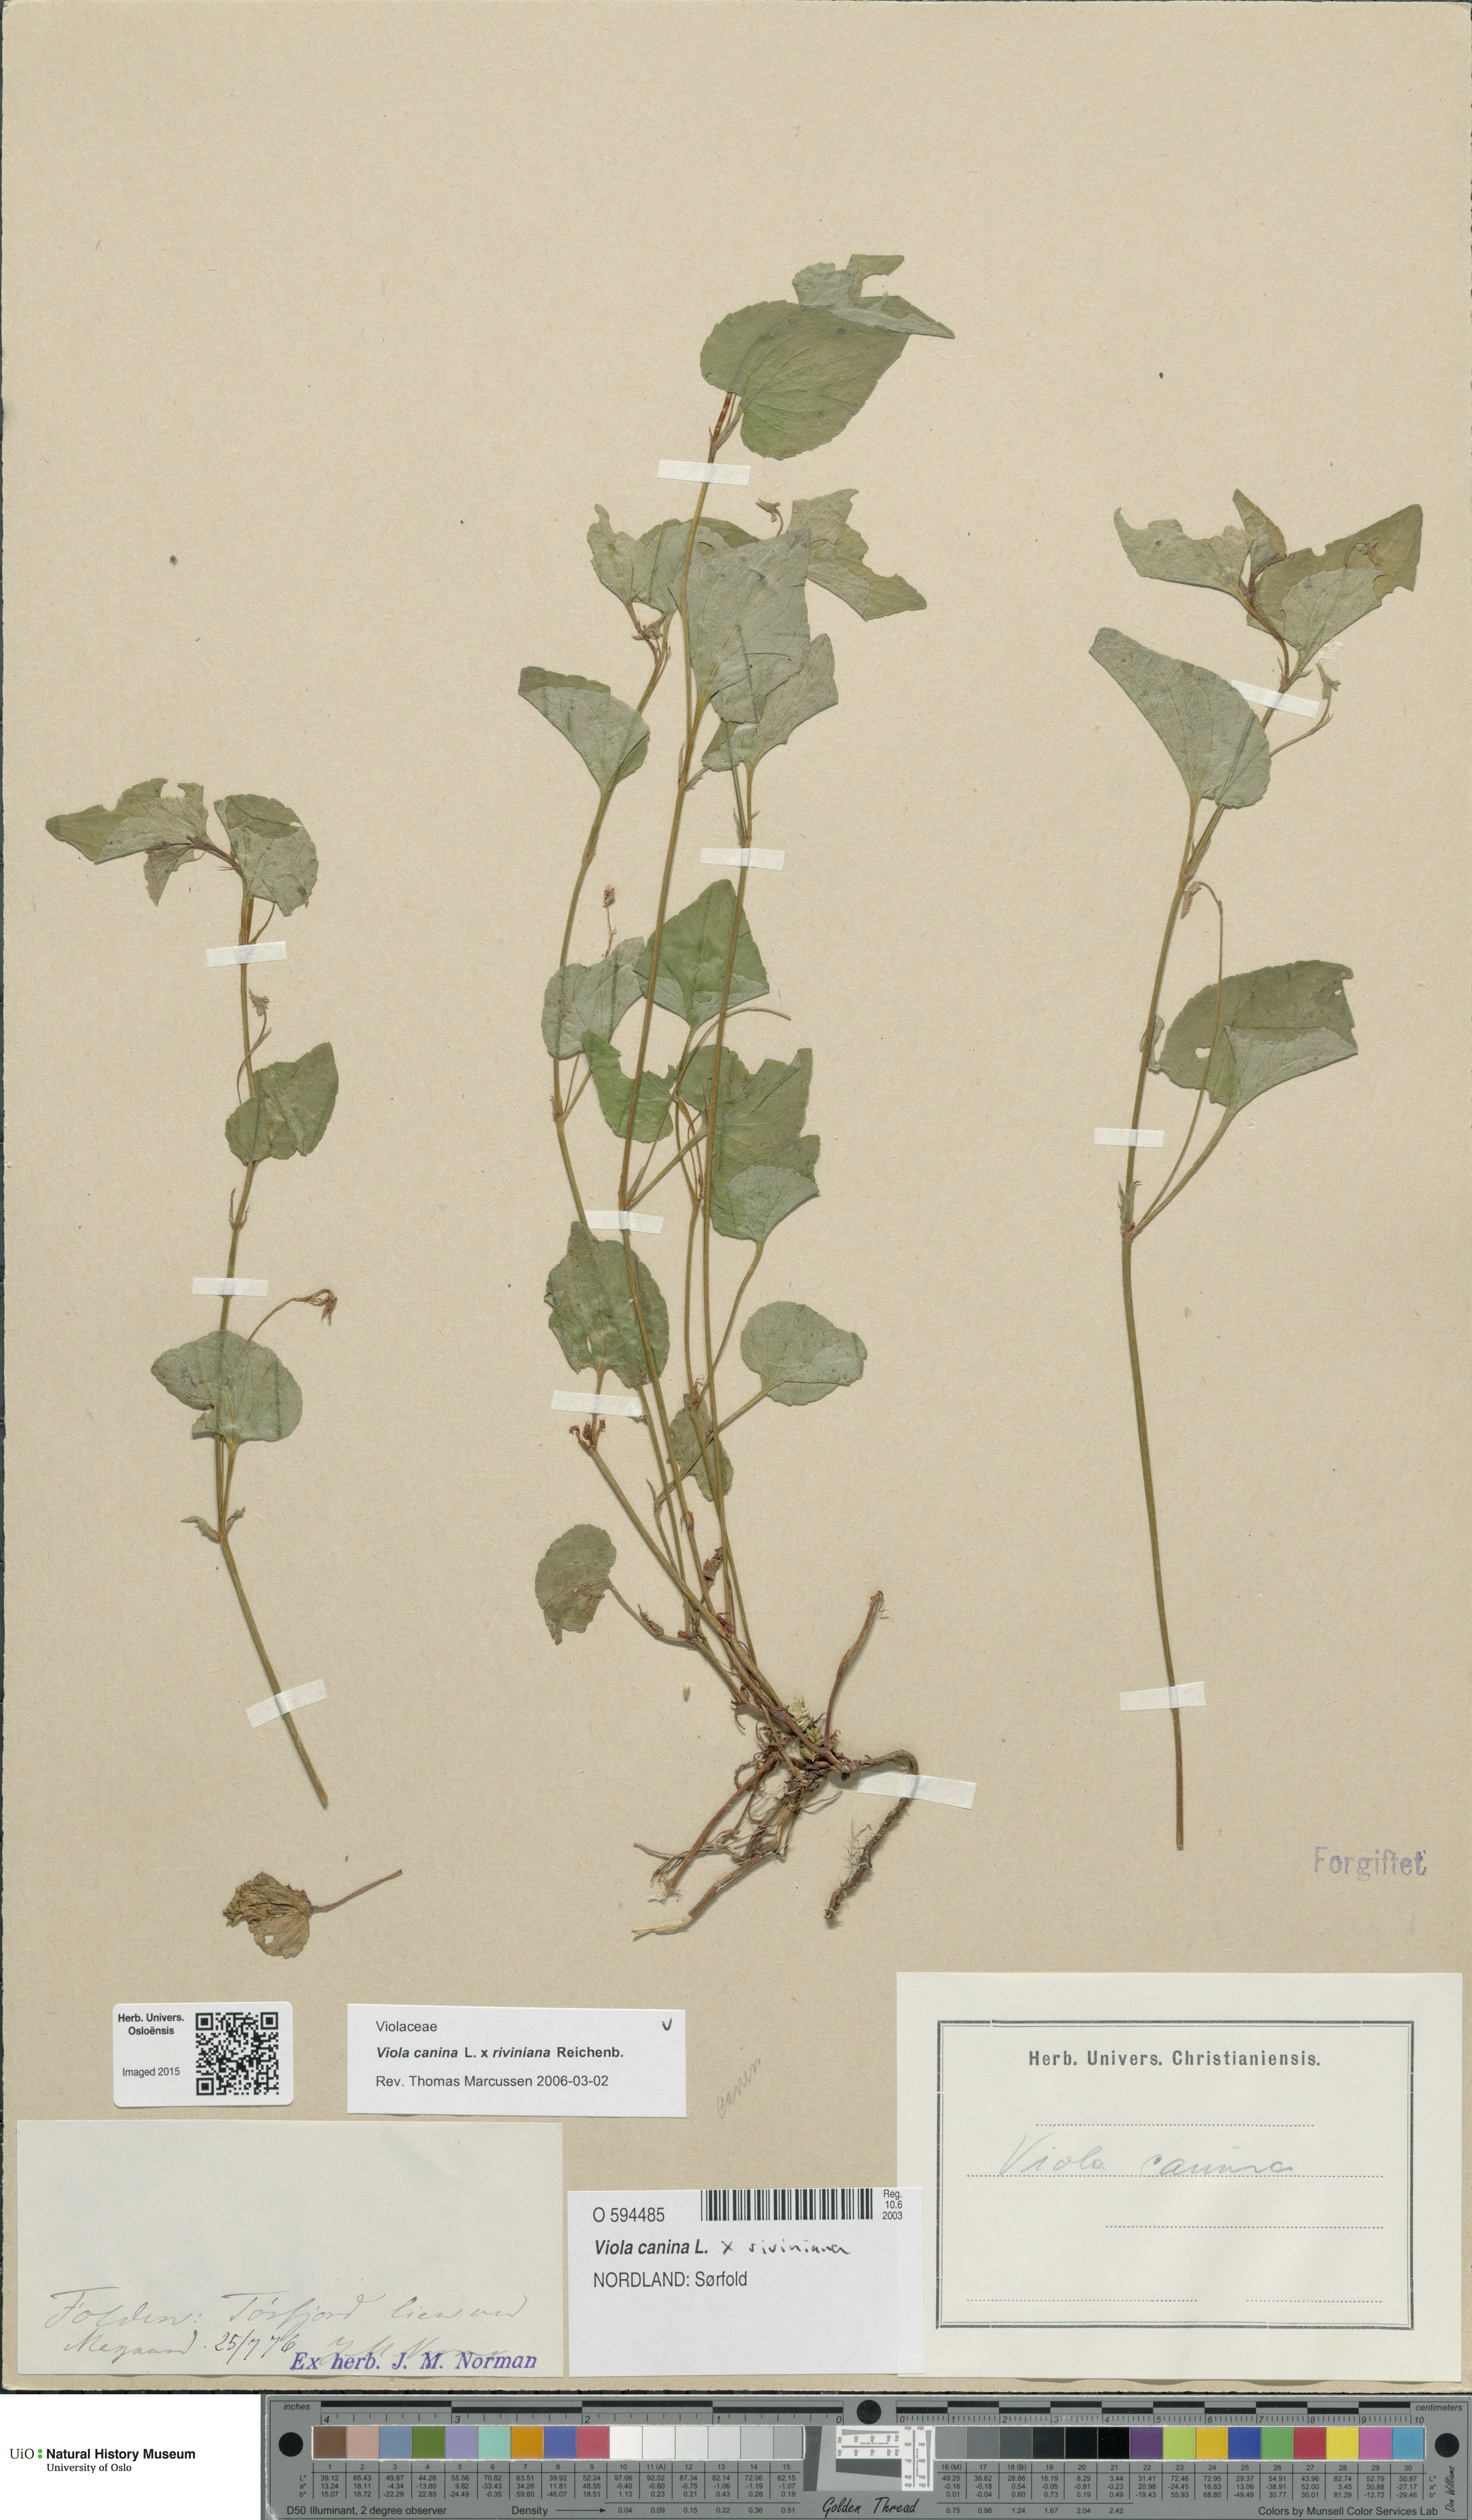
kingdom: Plantae
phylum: Tracheophyta
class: Magnoliopsida
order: Malpighiales
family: Violaceae
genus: Viola
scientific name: Viola
